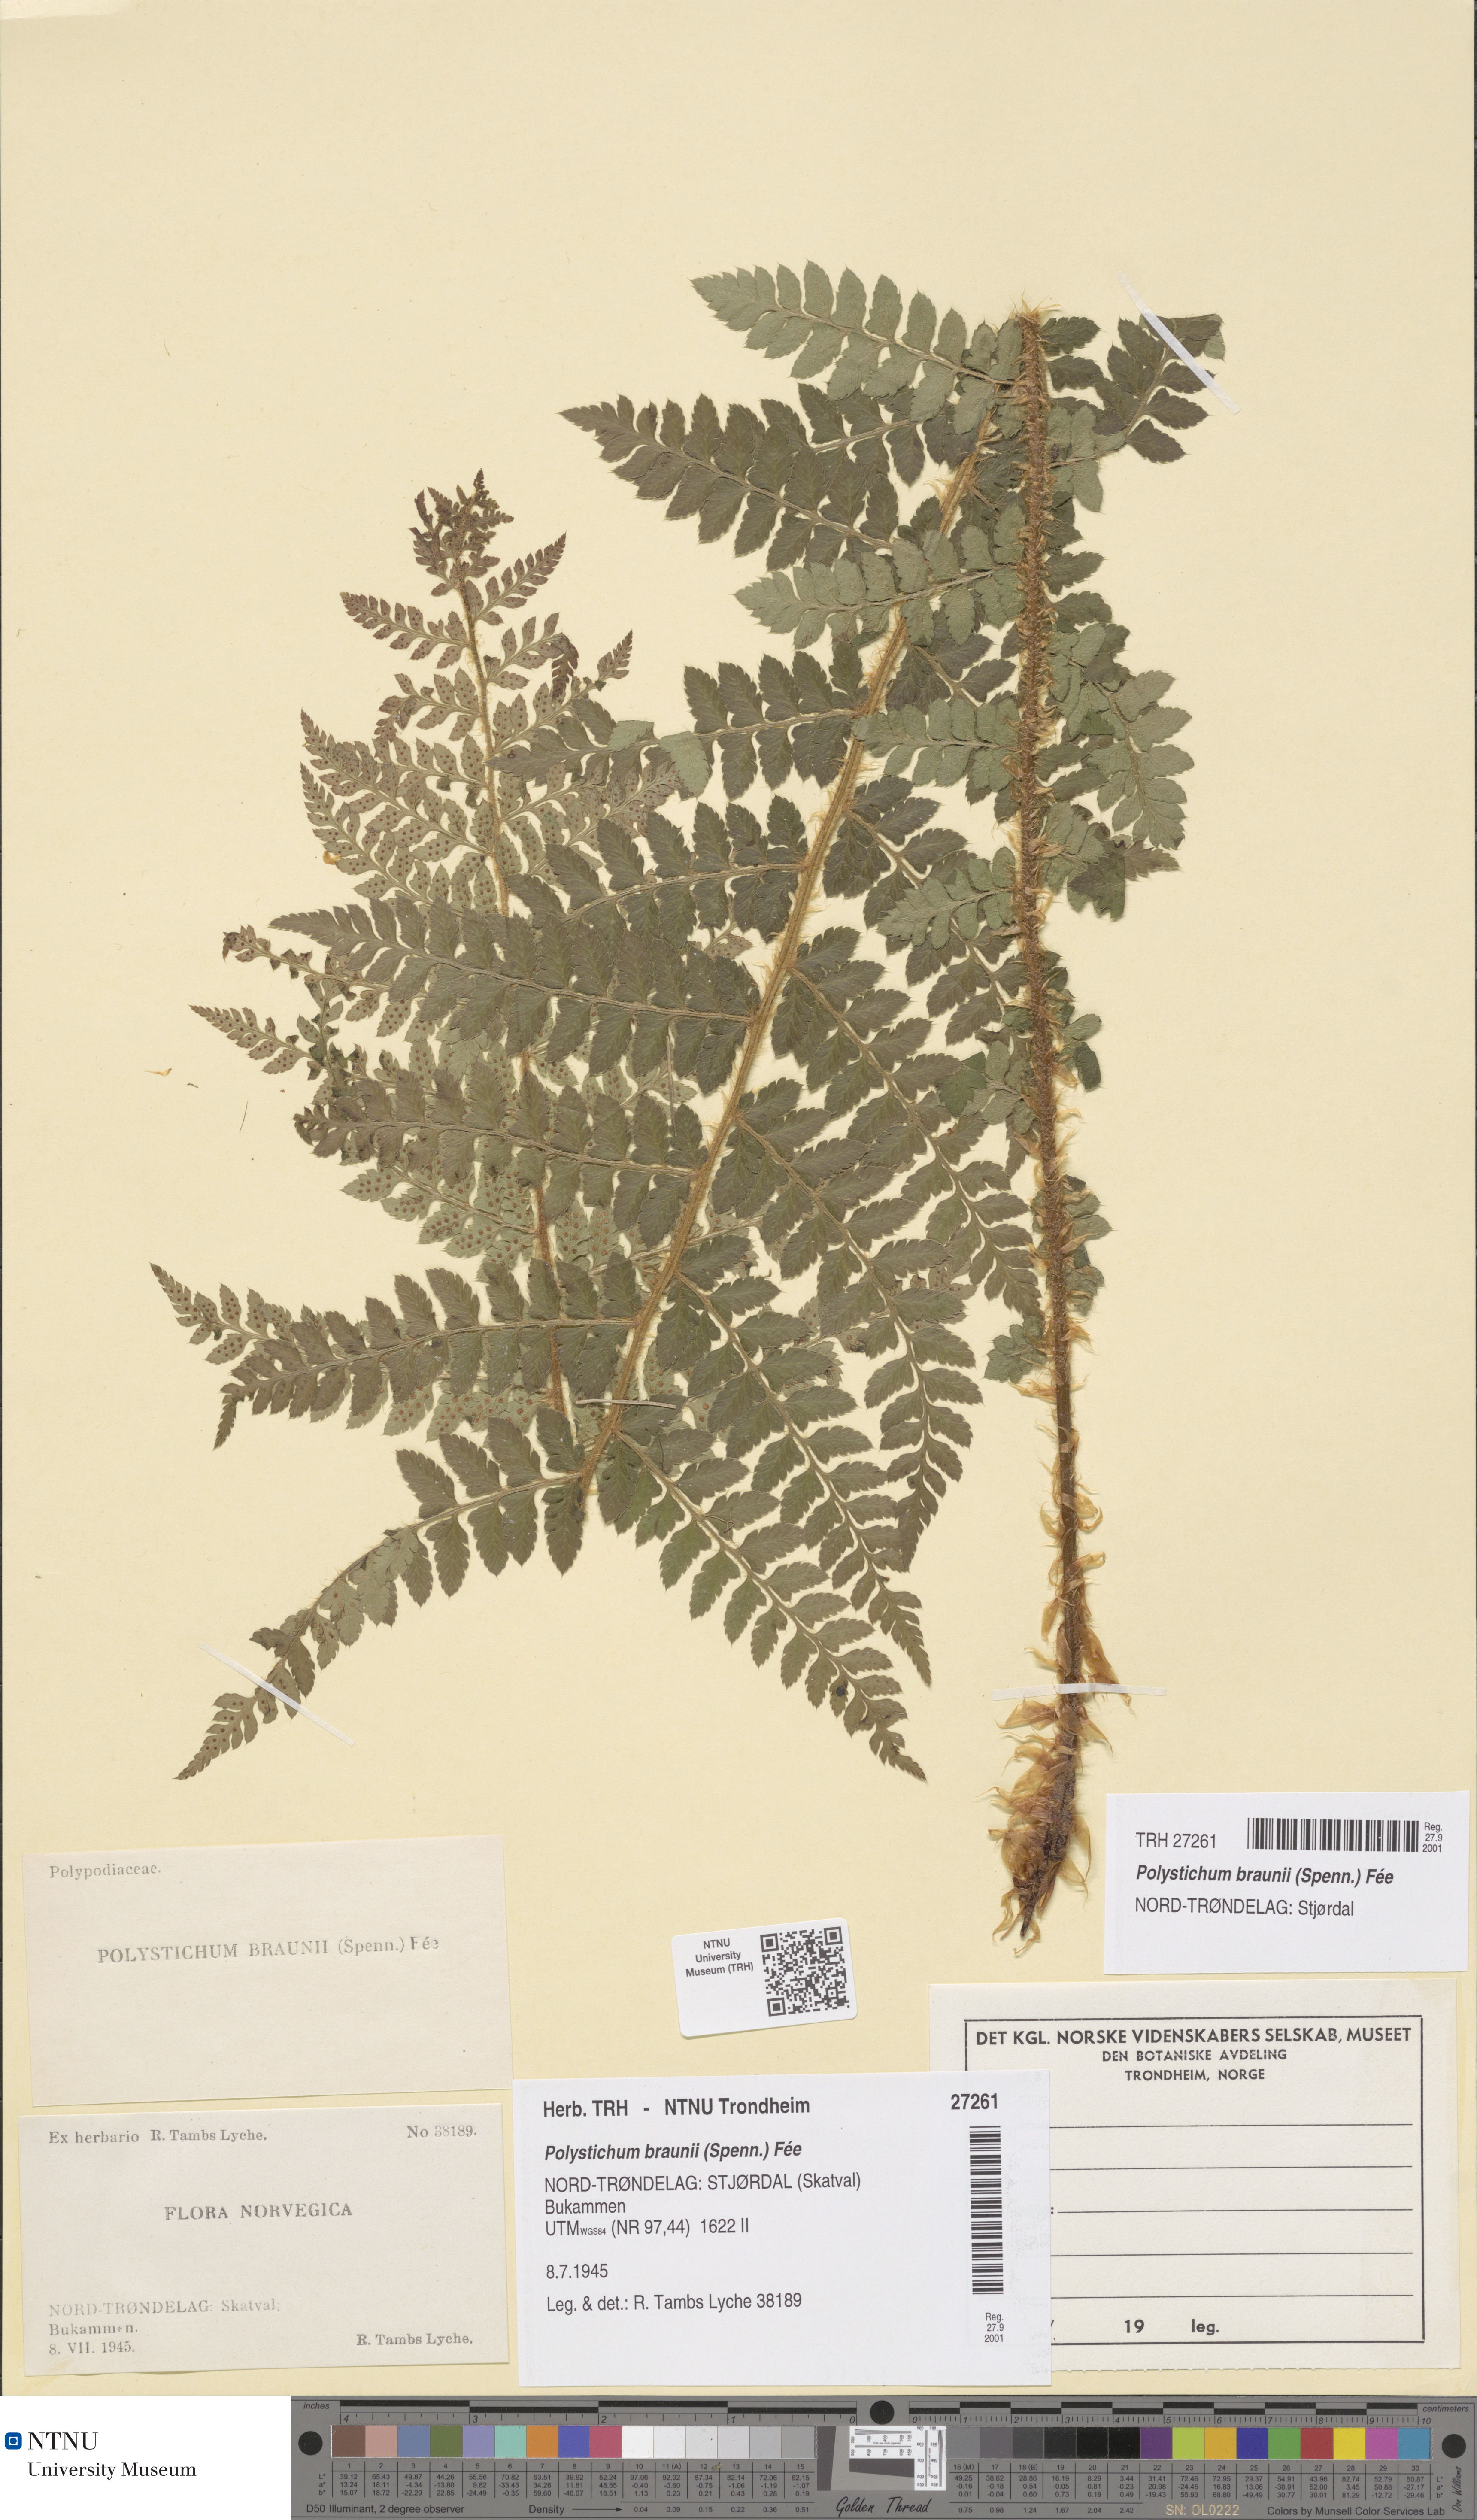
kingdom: Plantae
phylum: Tracheophyta
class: Polypodiopsida
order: Polypodiales
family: Dryopteridaceae
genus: Polystichum
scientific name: Polystichum braunii
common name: Braun's holly fern
